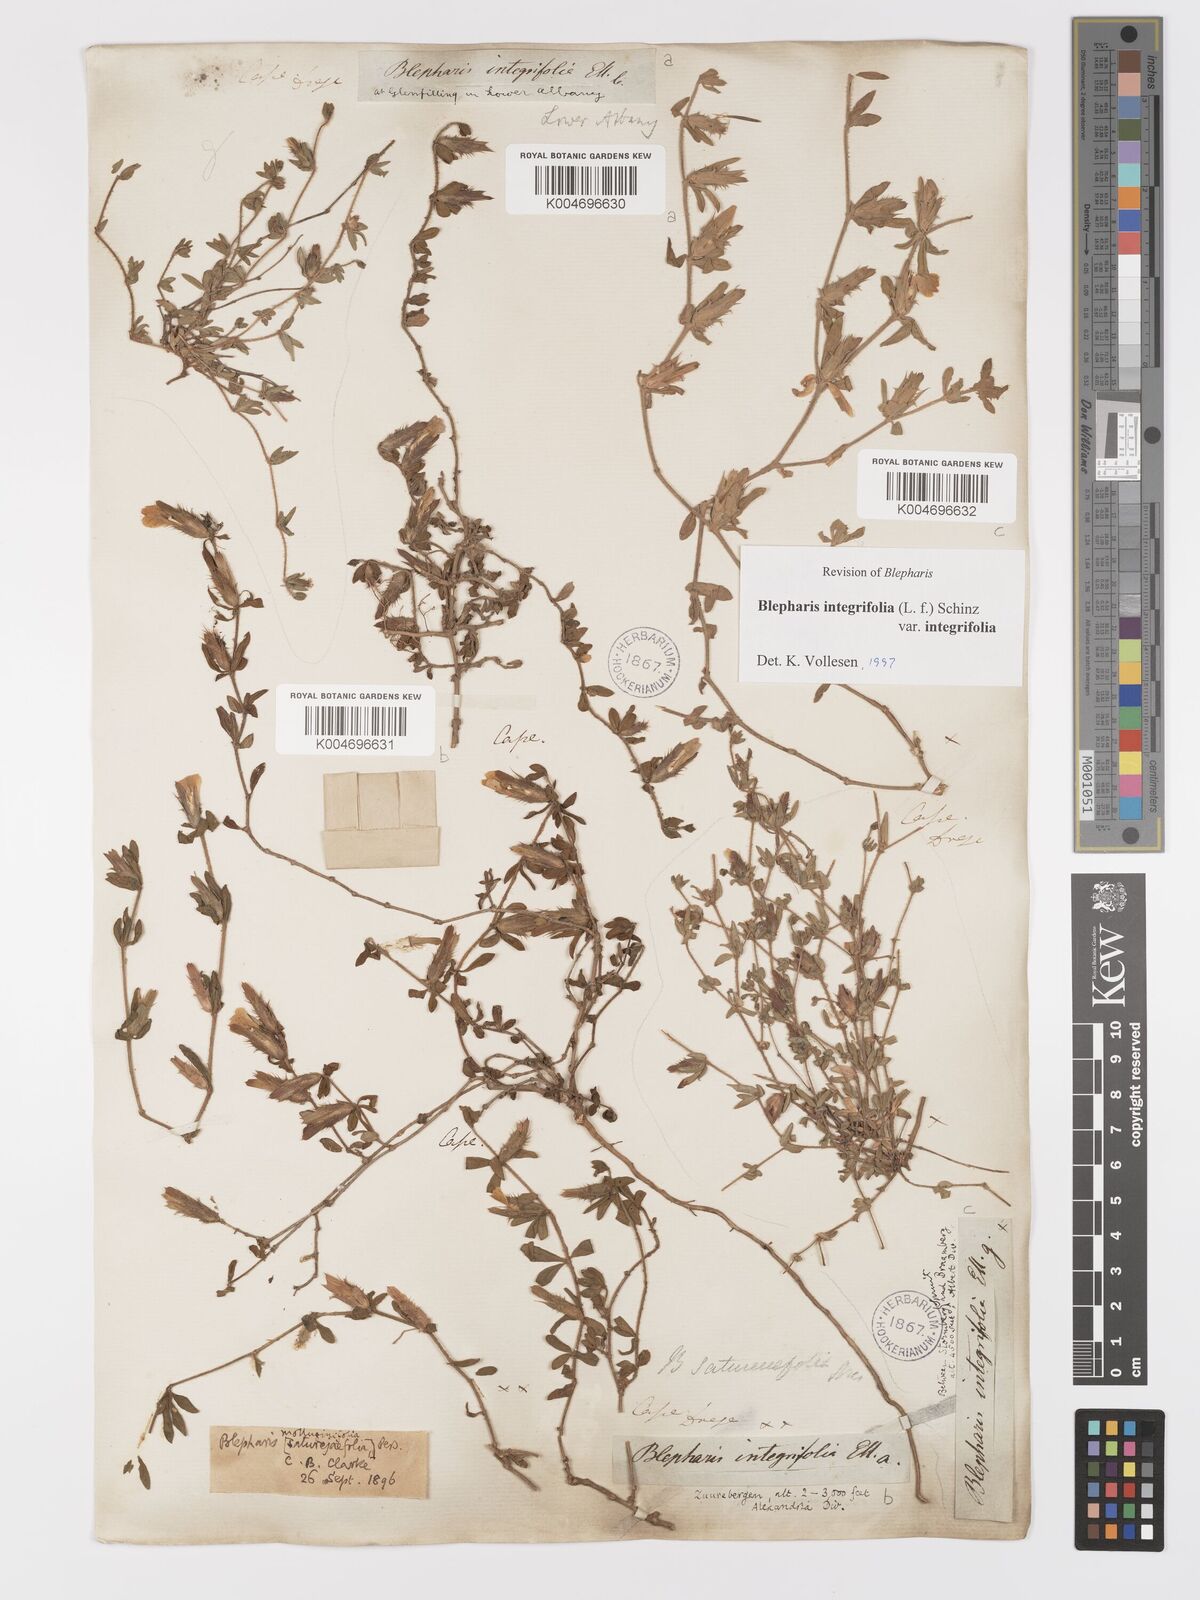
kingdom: Plantae
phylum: Tracheophyta
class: Magnoliopsida
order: Lamiales
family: Acanthaceae
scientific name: Acanthaceae
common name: Acanthaceae
